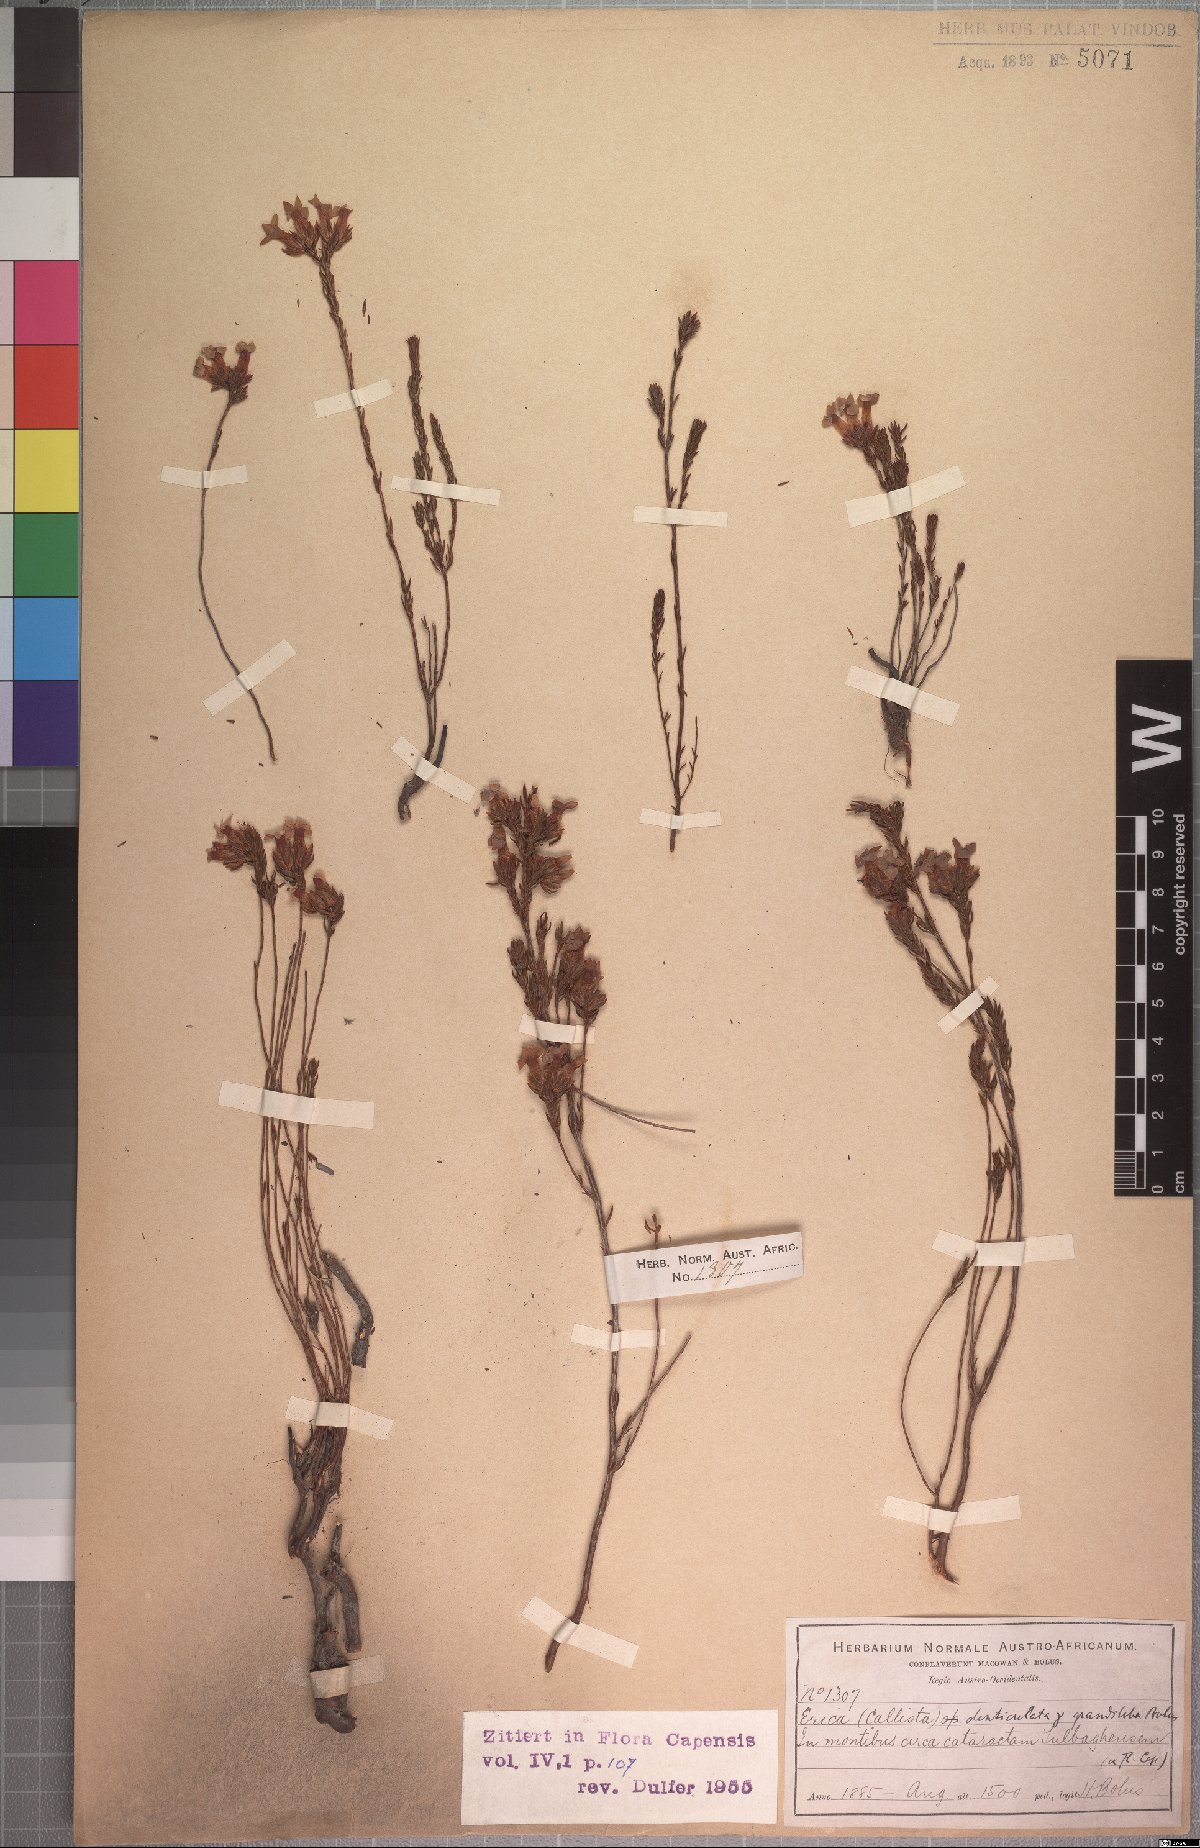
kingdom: Plantae
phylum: Tracheophyta
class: Magnoliopsida
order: Ericales
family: Ericaceae
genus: Erica
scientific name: Erica denticulata
